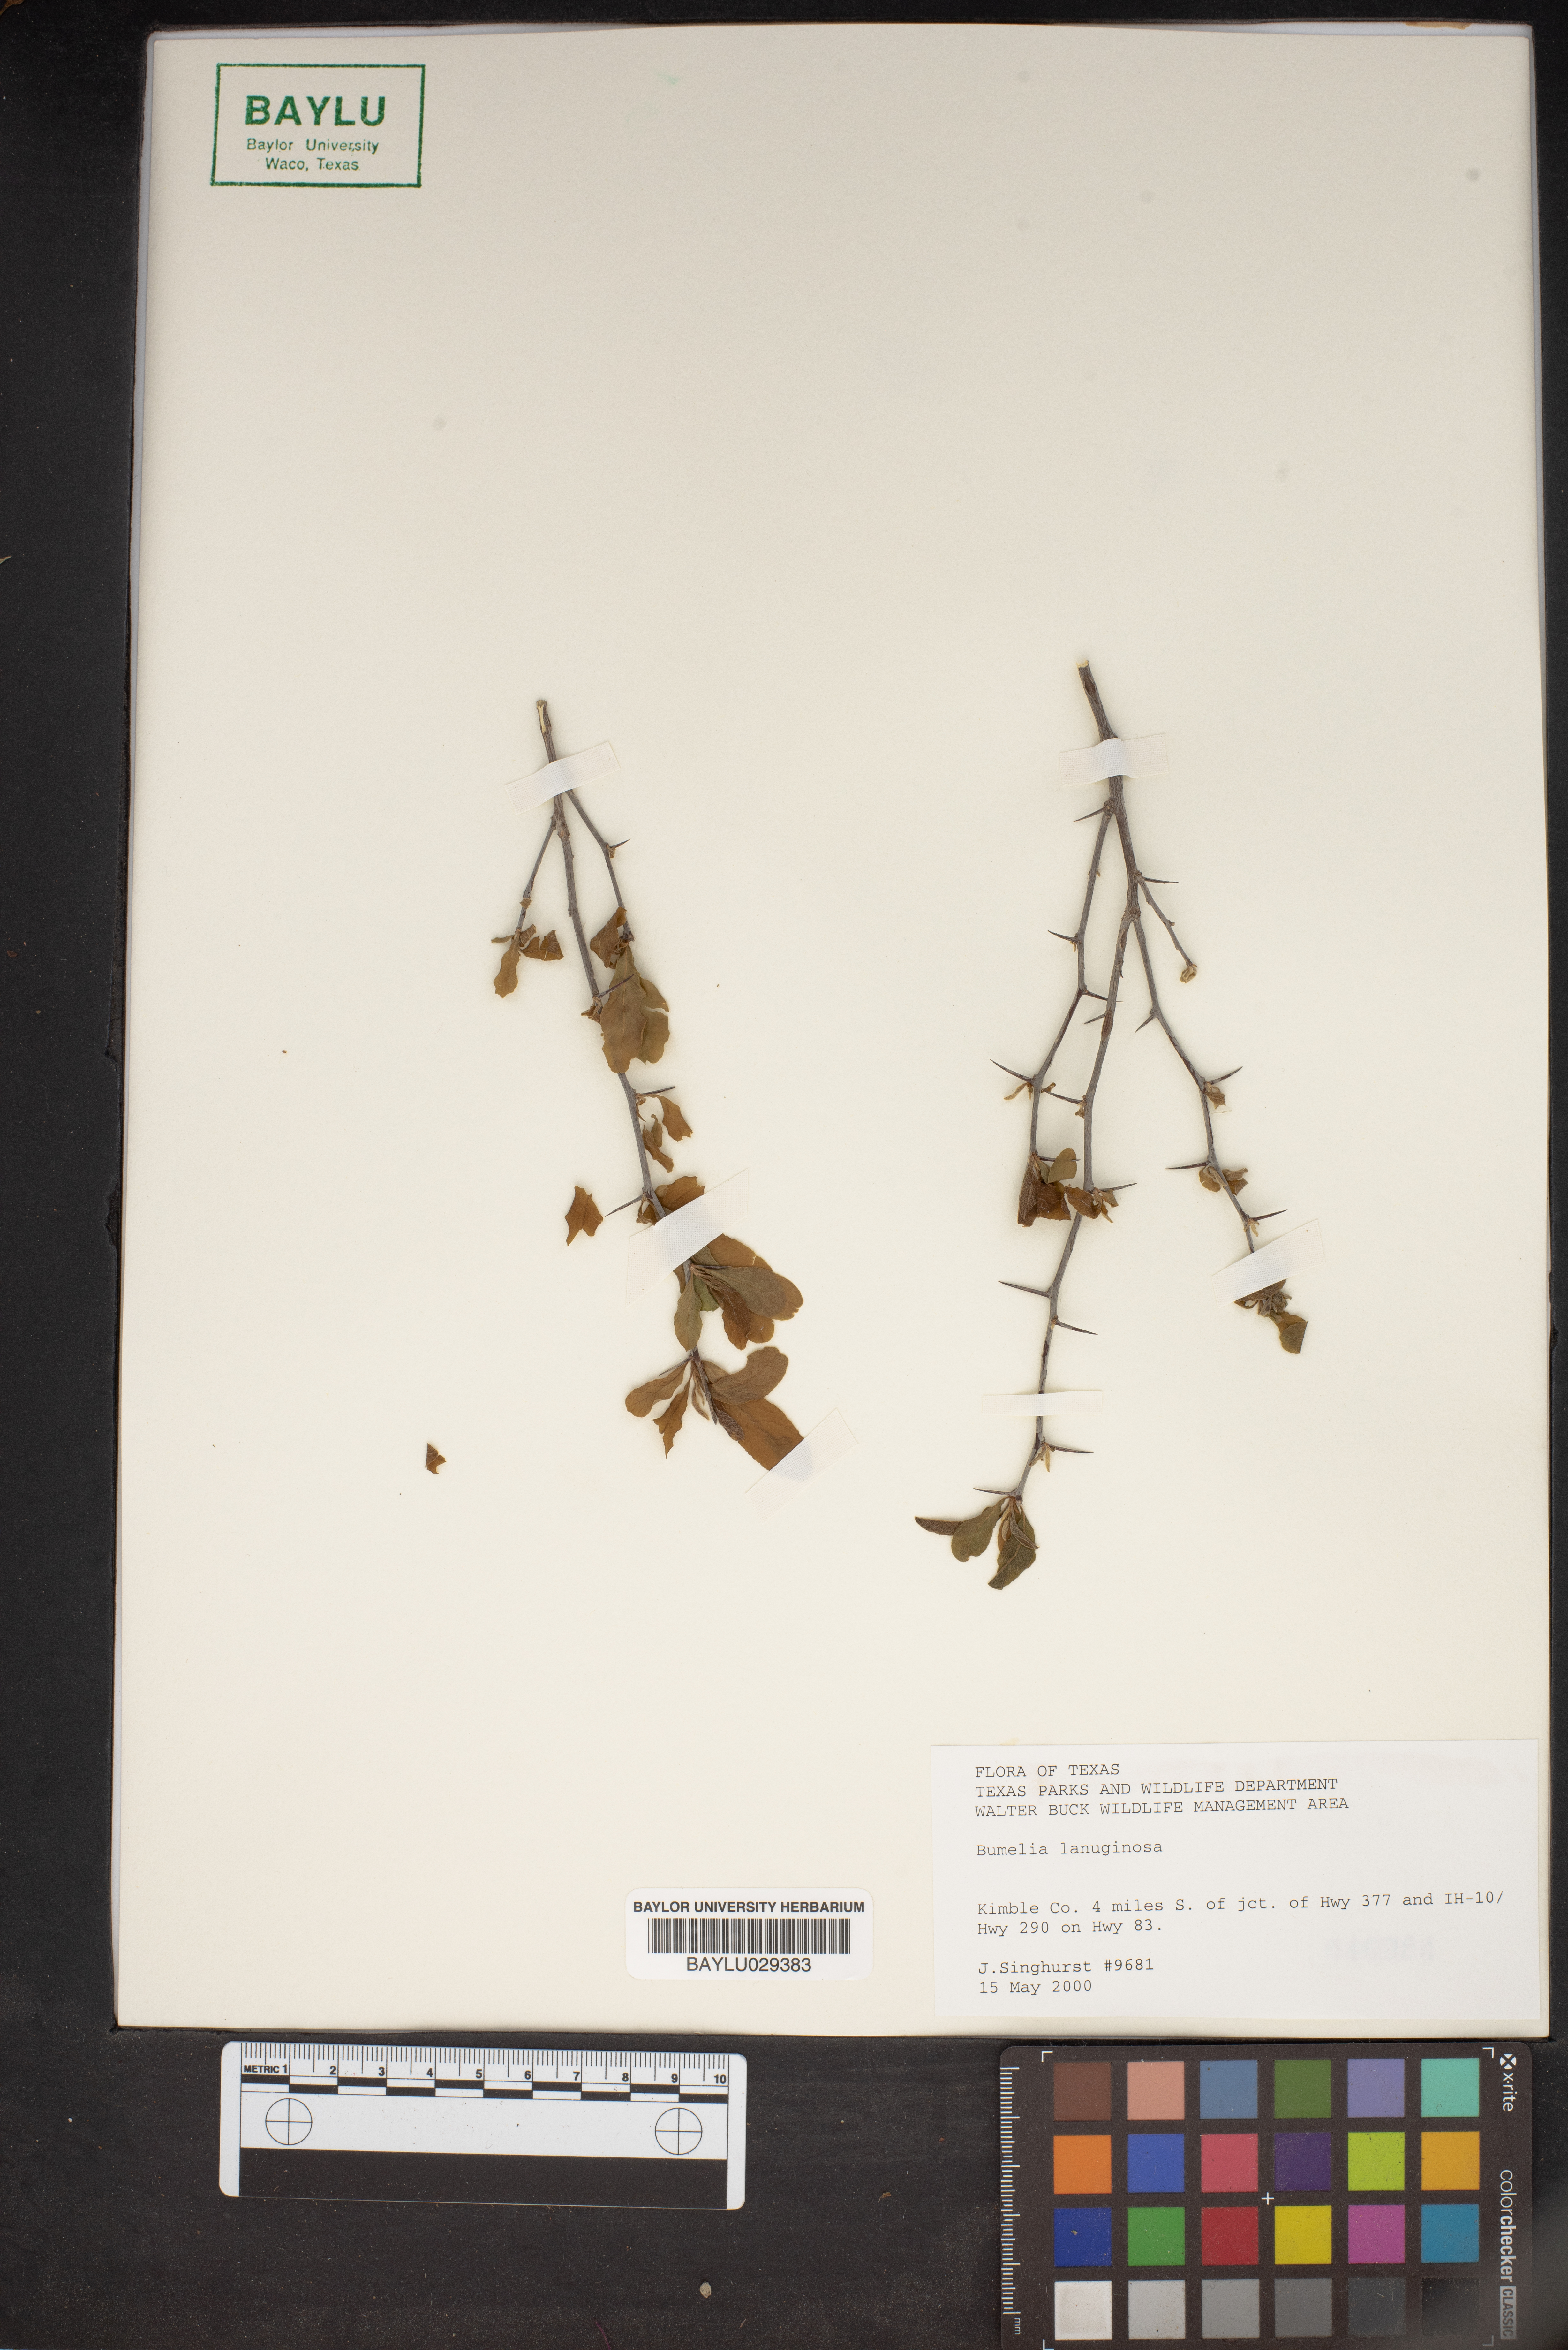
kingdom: Plantae
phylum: Tracheophyta
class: Magnoliopsida
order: Ericales
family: Sapotaceae
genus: Sideroxylon
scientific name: Sideroxylon lanuginosum
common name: Chittamwood
